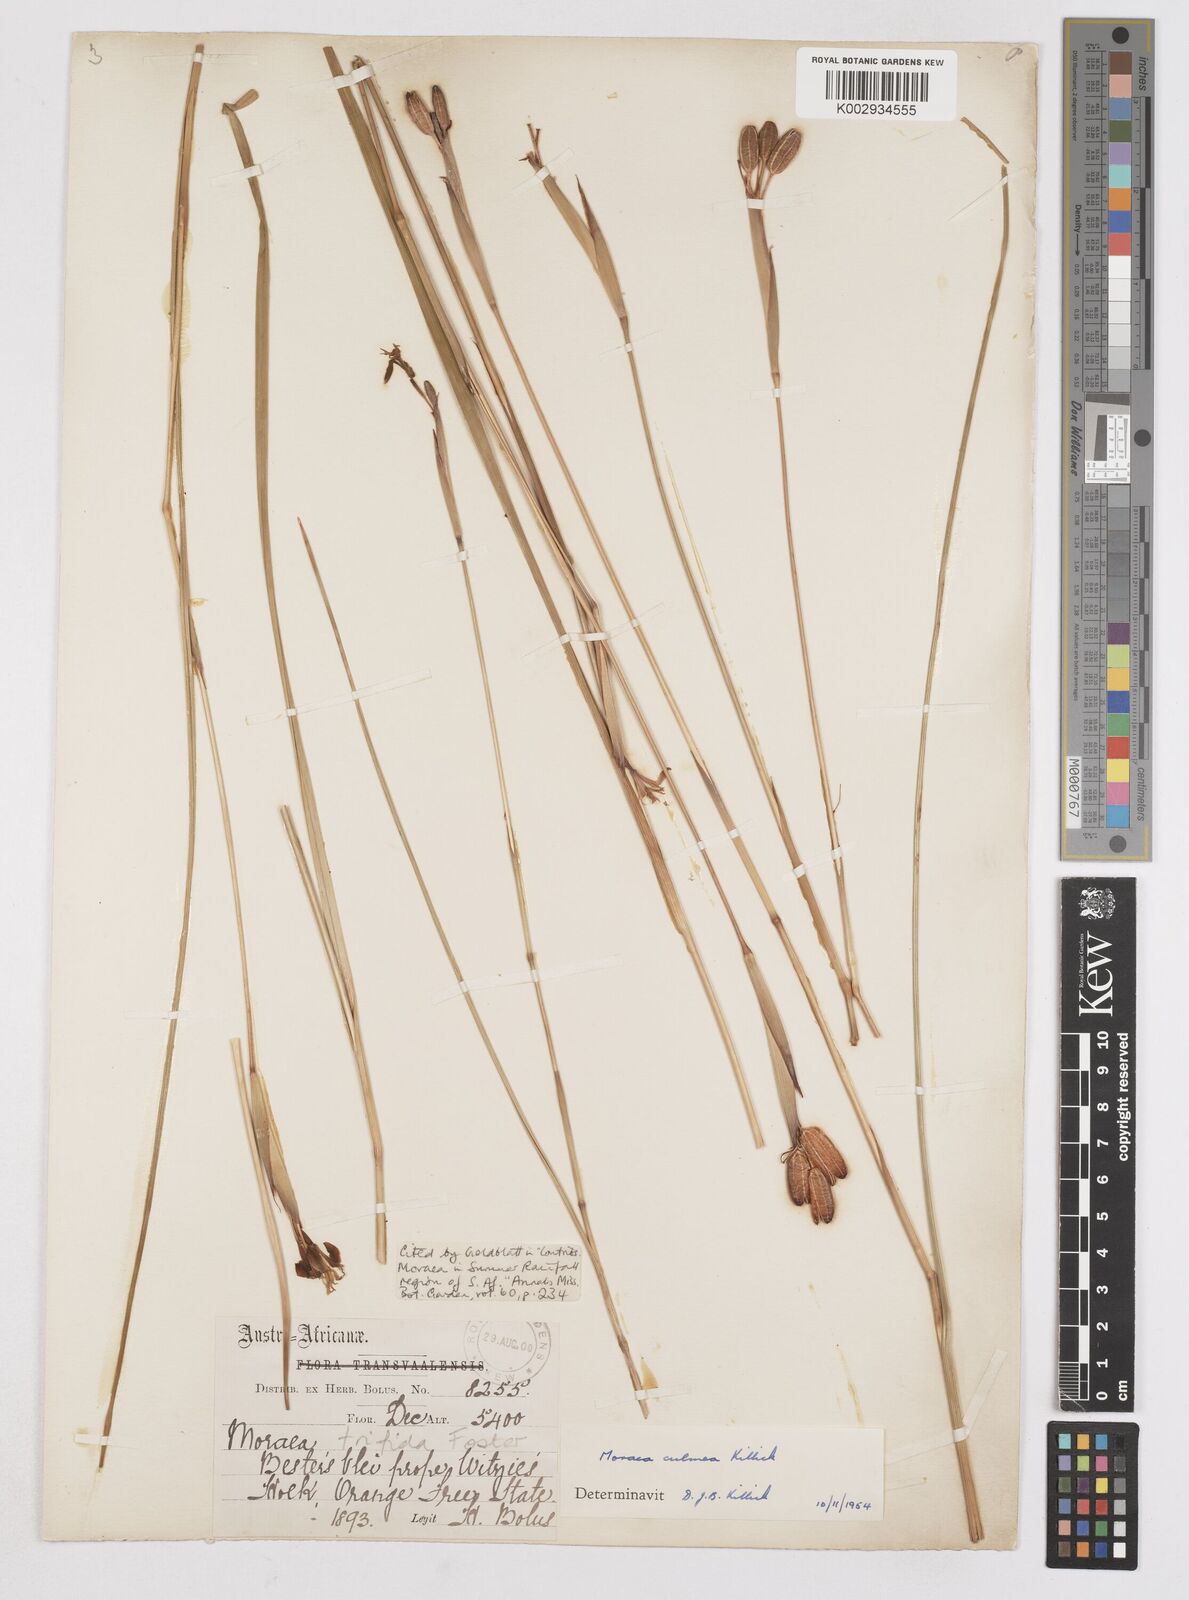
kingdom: Plantae
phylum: Tracheophyta
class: Liliopsida
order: Asparagales
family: Iridaceae
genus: Moraea
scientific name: Moraea trifida
